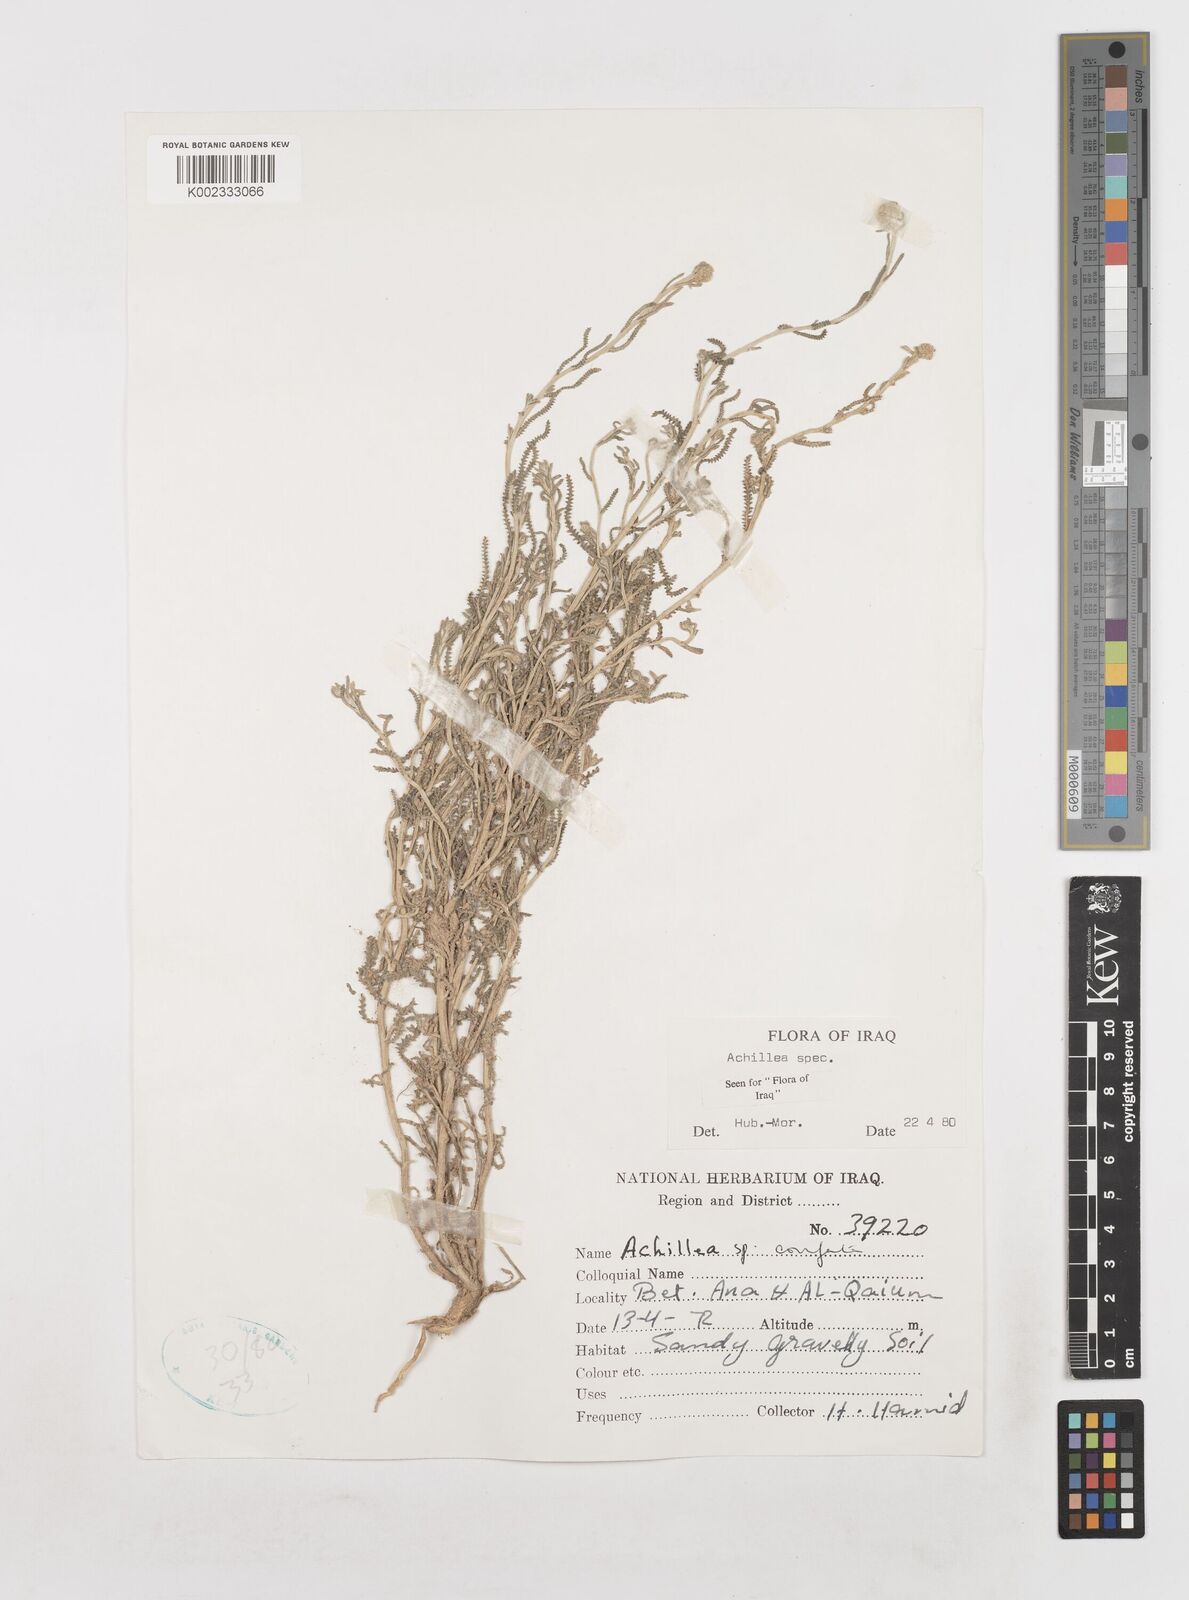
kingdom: Plantae
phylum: Tracheophyta
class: Magnoliopsida
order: Asterales
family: Asteraceae
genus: Achillea
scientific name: Achillea
